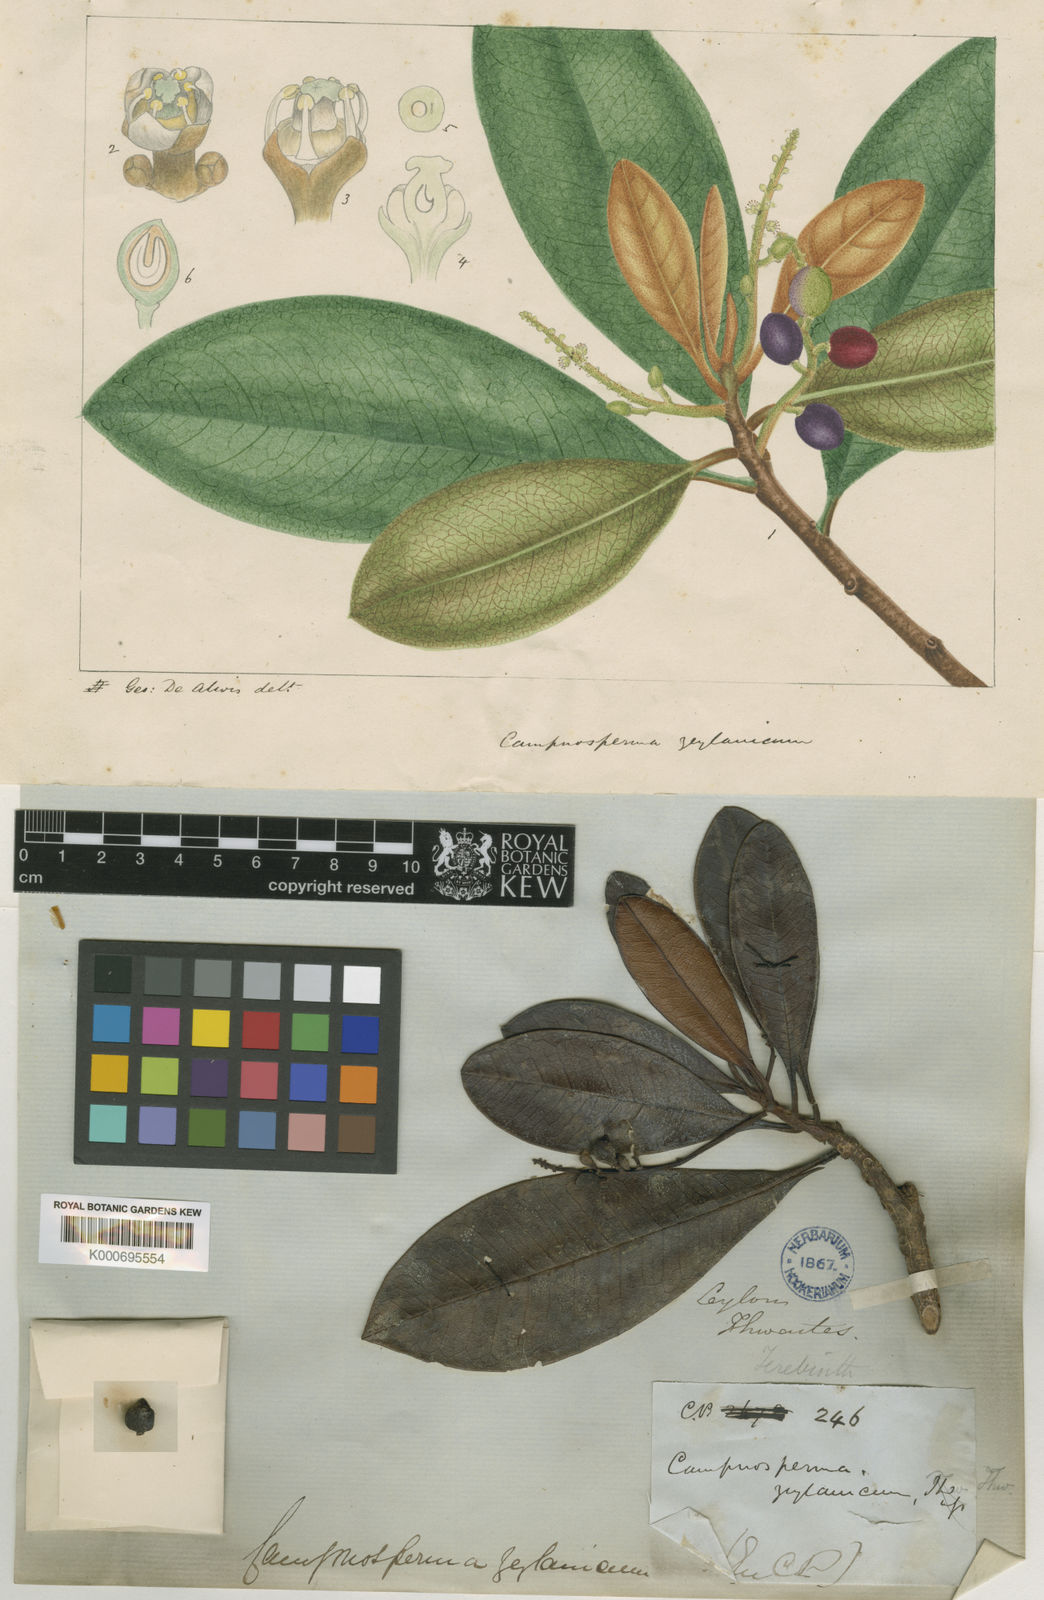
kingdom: Plantae
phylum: Tracheophyta
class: Magnoliopsida
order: Sapindales
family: Anacardiaceae
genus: Campnosperma
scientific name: Campnosperma zeylanicum
